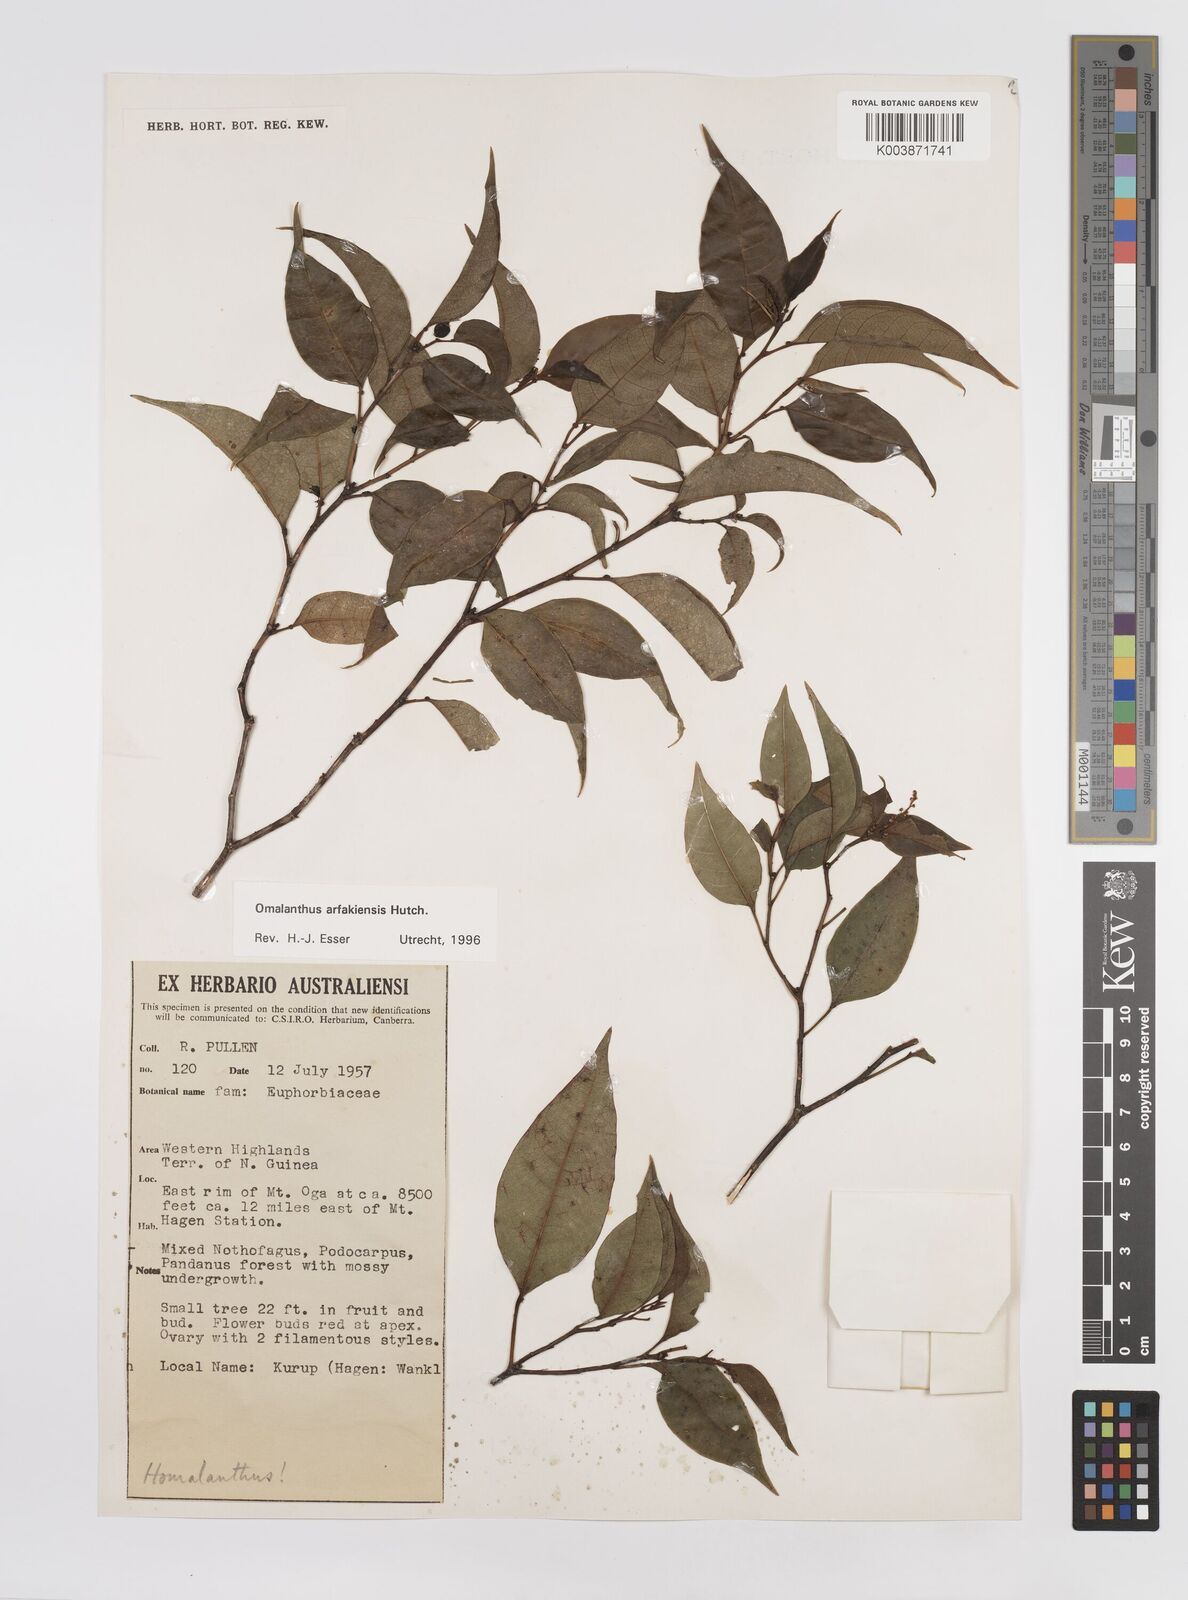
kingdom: Plantae
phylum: Tracheophyta
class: Magnoliopsida
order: Malpighiales
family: Euphorbiaceae
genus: Homalanthus
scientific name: Homalanthus arfakiensis
